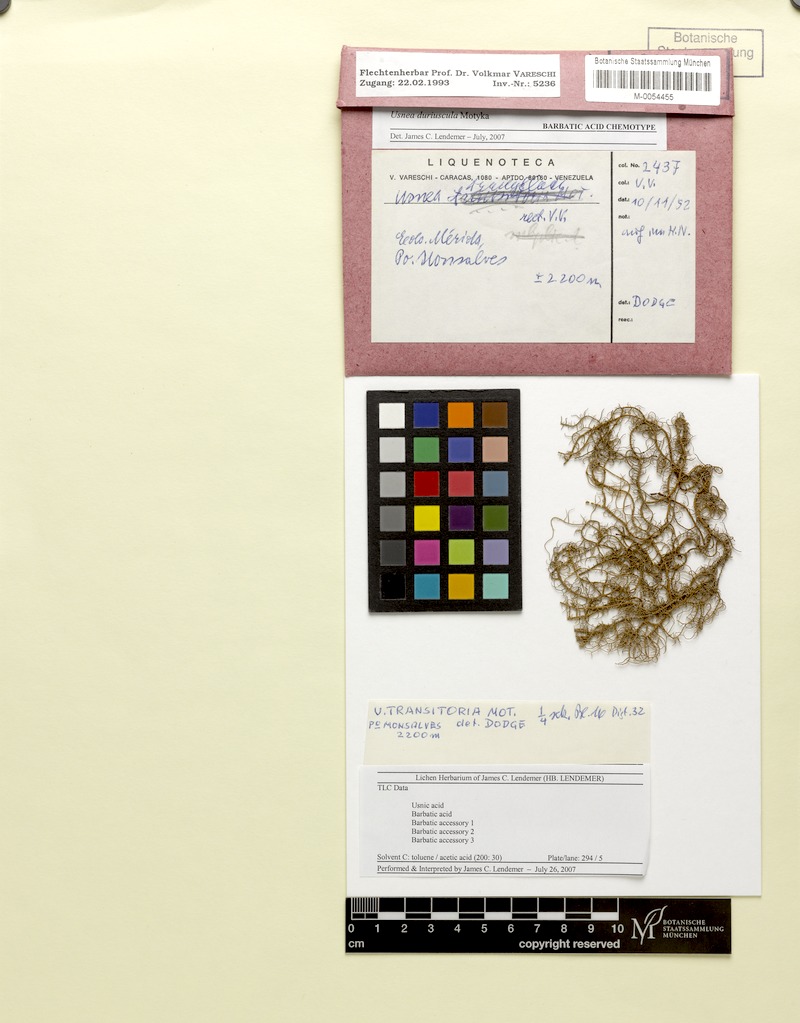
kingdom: Fungi
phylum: Ascomycota
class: Lecanoromycetes
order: Lecanorales
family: Parmeliaceae
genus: Usnea
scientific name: Usnea duriuscula
